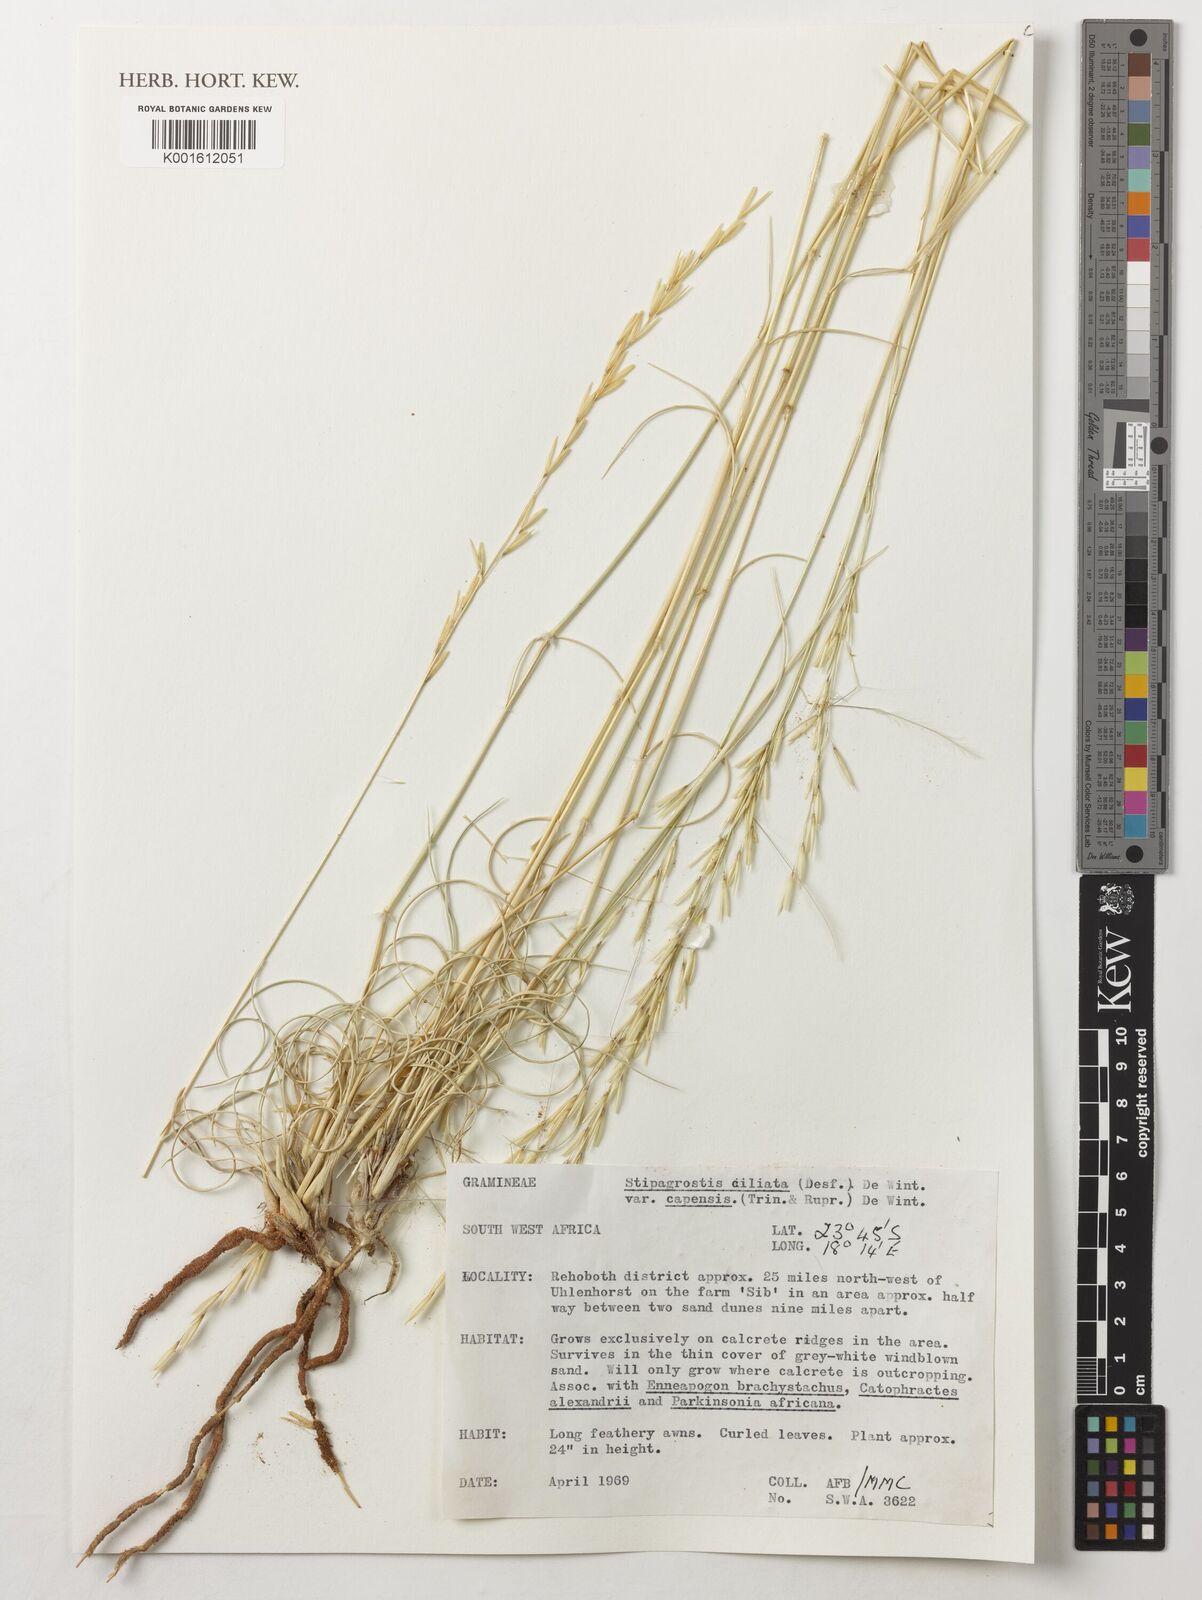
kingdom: Plantae
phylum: Tracheophyta
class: Liliopsida
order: Poales
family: Poaceae
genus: Stipagrostis
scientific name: Stipagrostis ciliata
